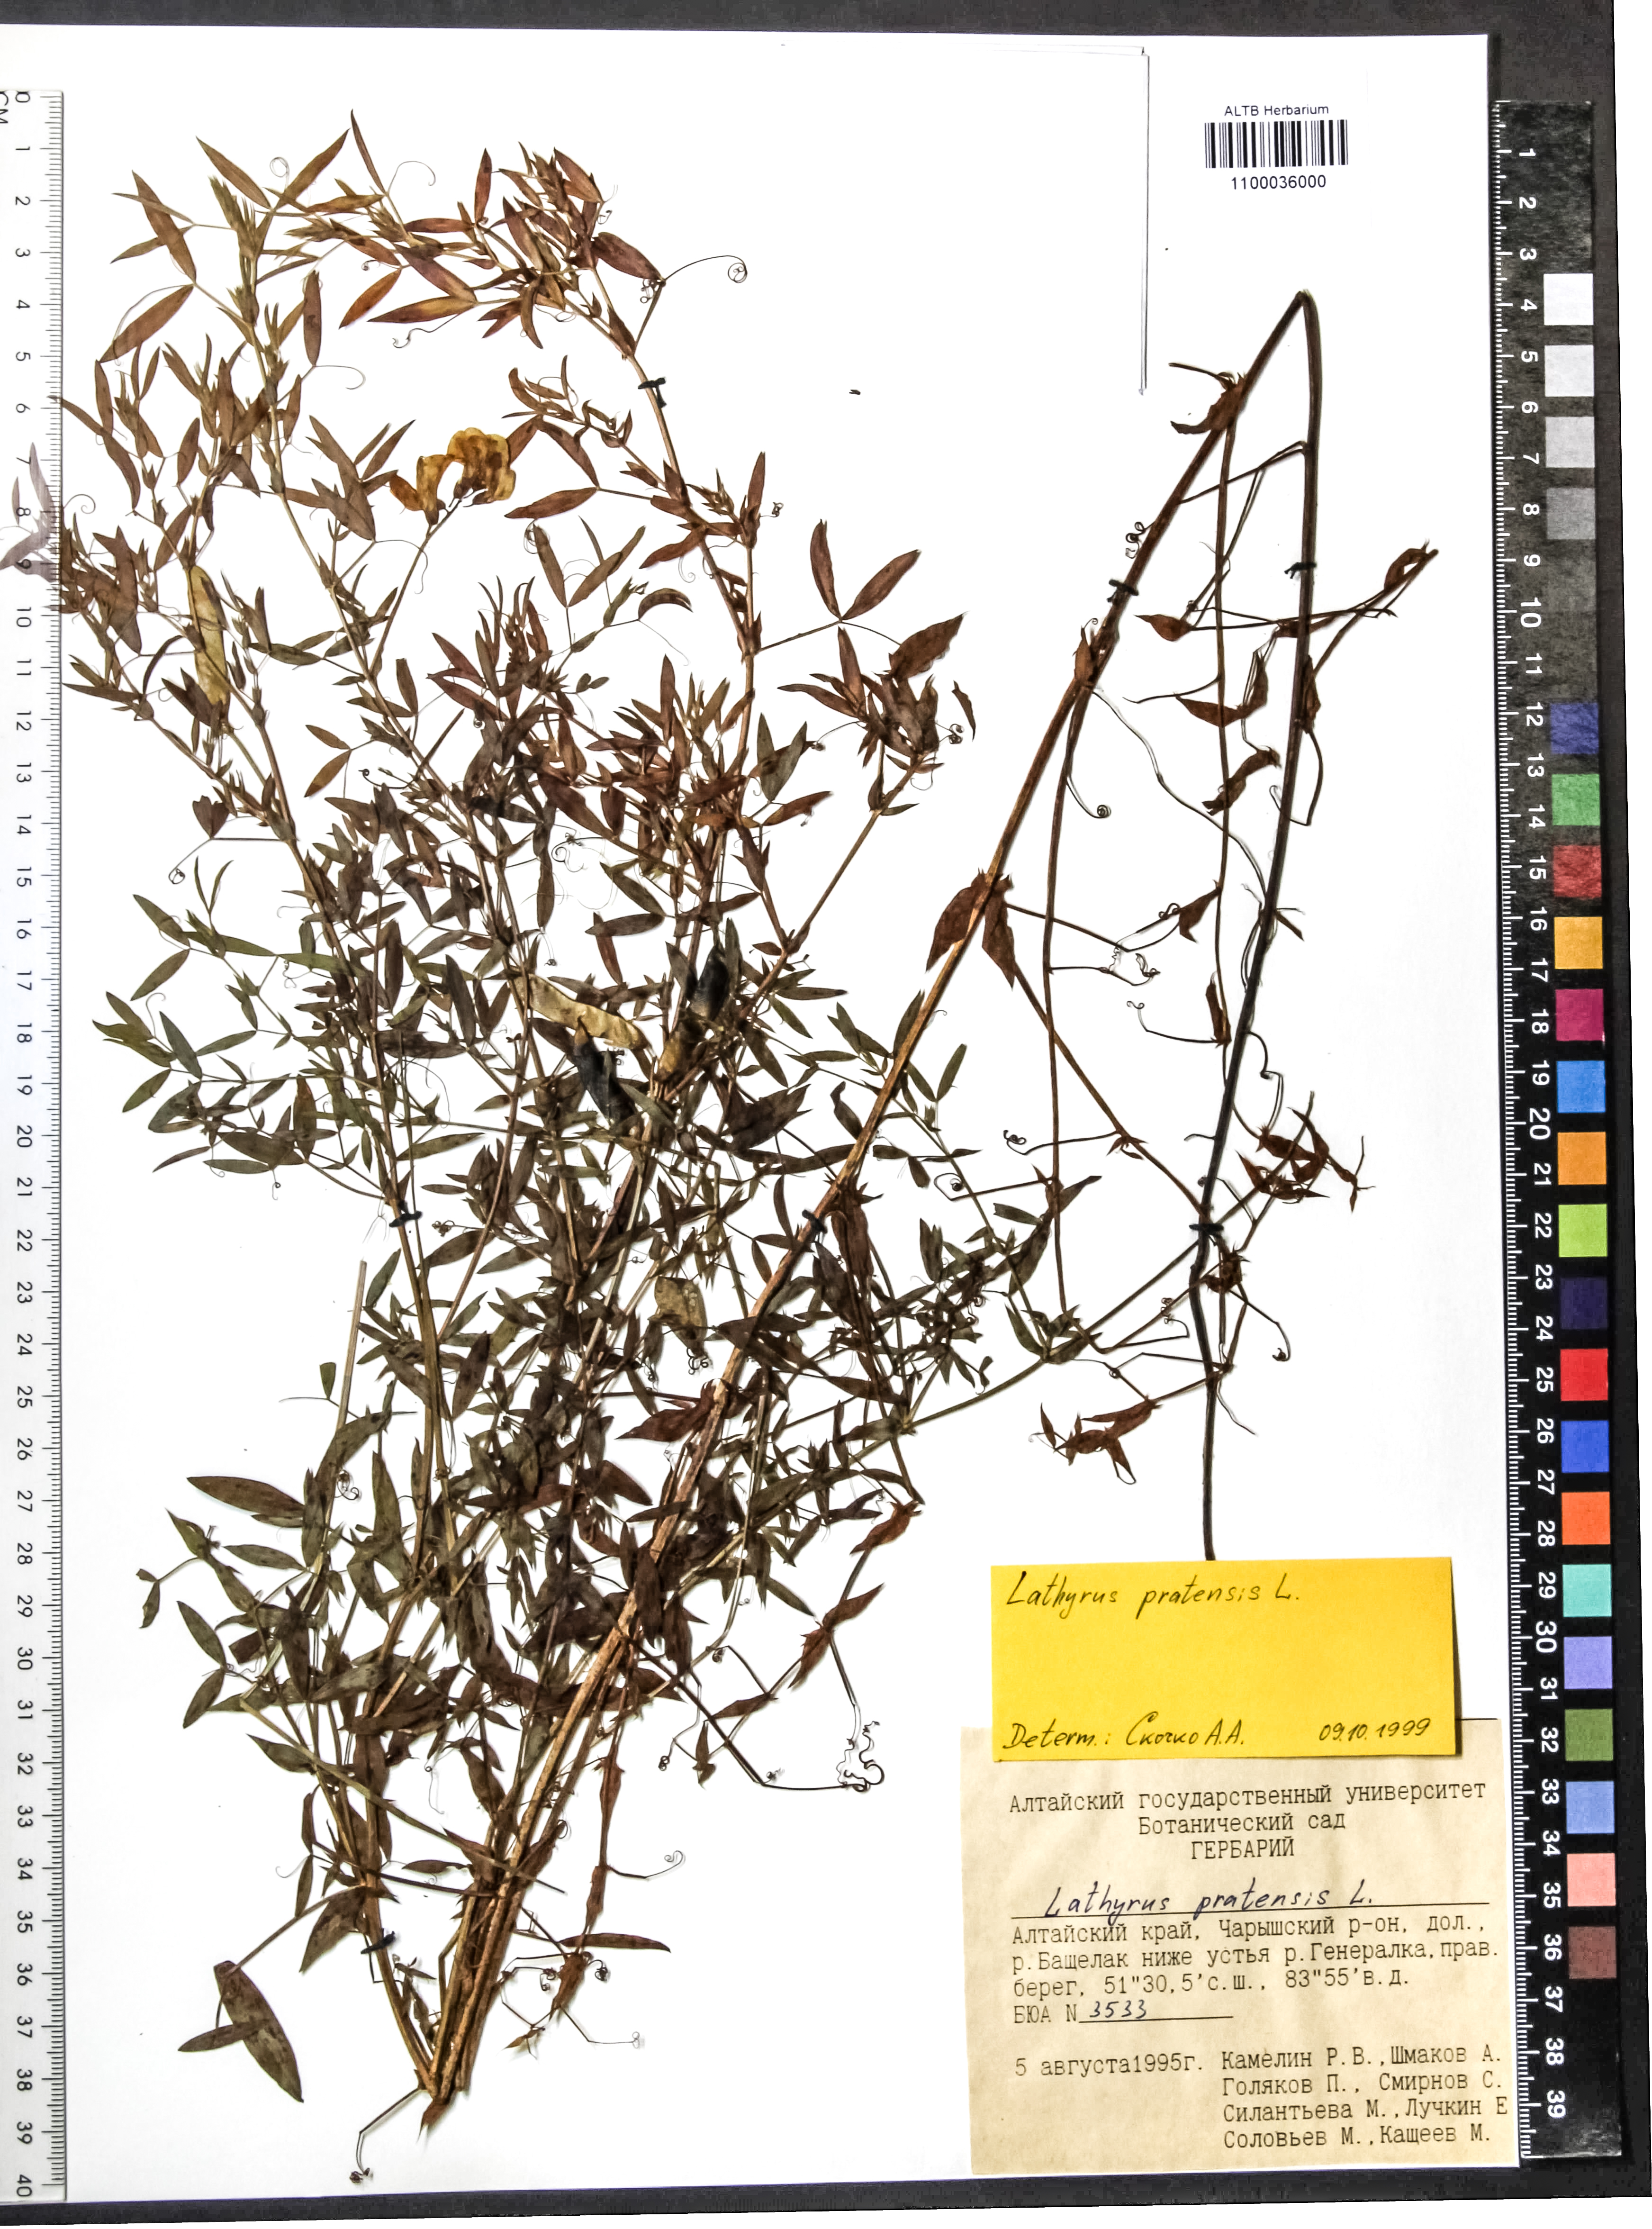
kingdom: Plantae
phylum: Tracheophyta
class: Magnoliopsida
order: Fabales
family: Fabaceae
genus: Lathyrus
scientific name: Lathyrus pratensis
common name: Meadow vetchling
